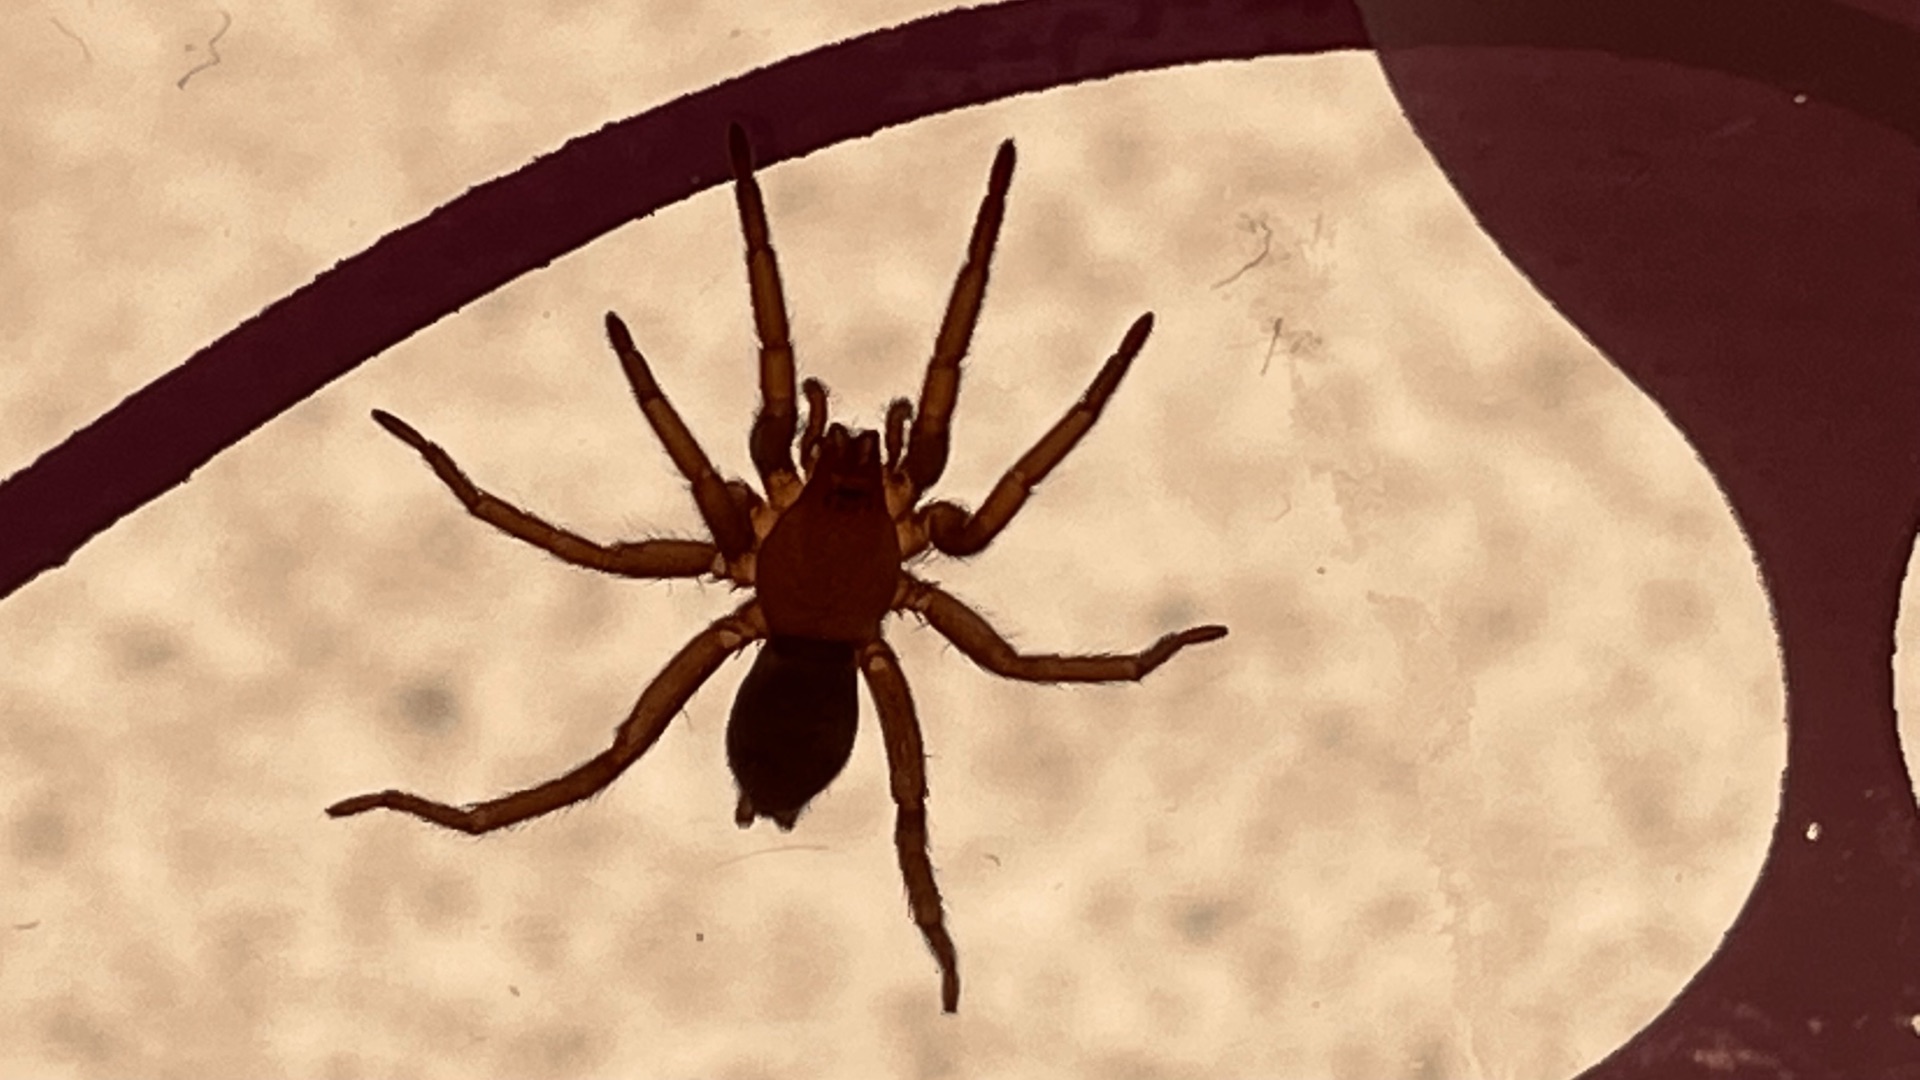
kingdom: Animalia
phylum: Arthropoda
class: Arachnida
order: Araneae
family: Gnaphosidae
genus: Scotophaeus
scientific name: Scotophaeus
